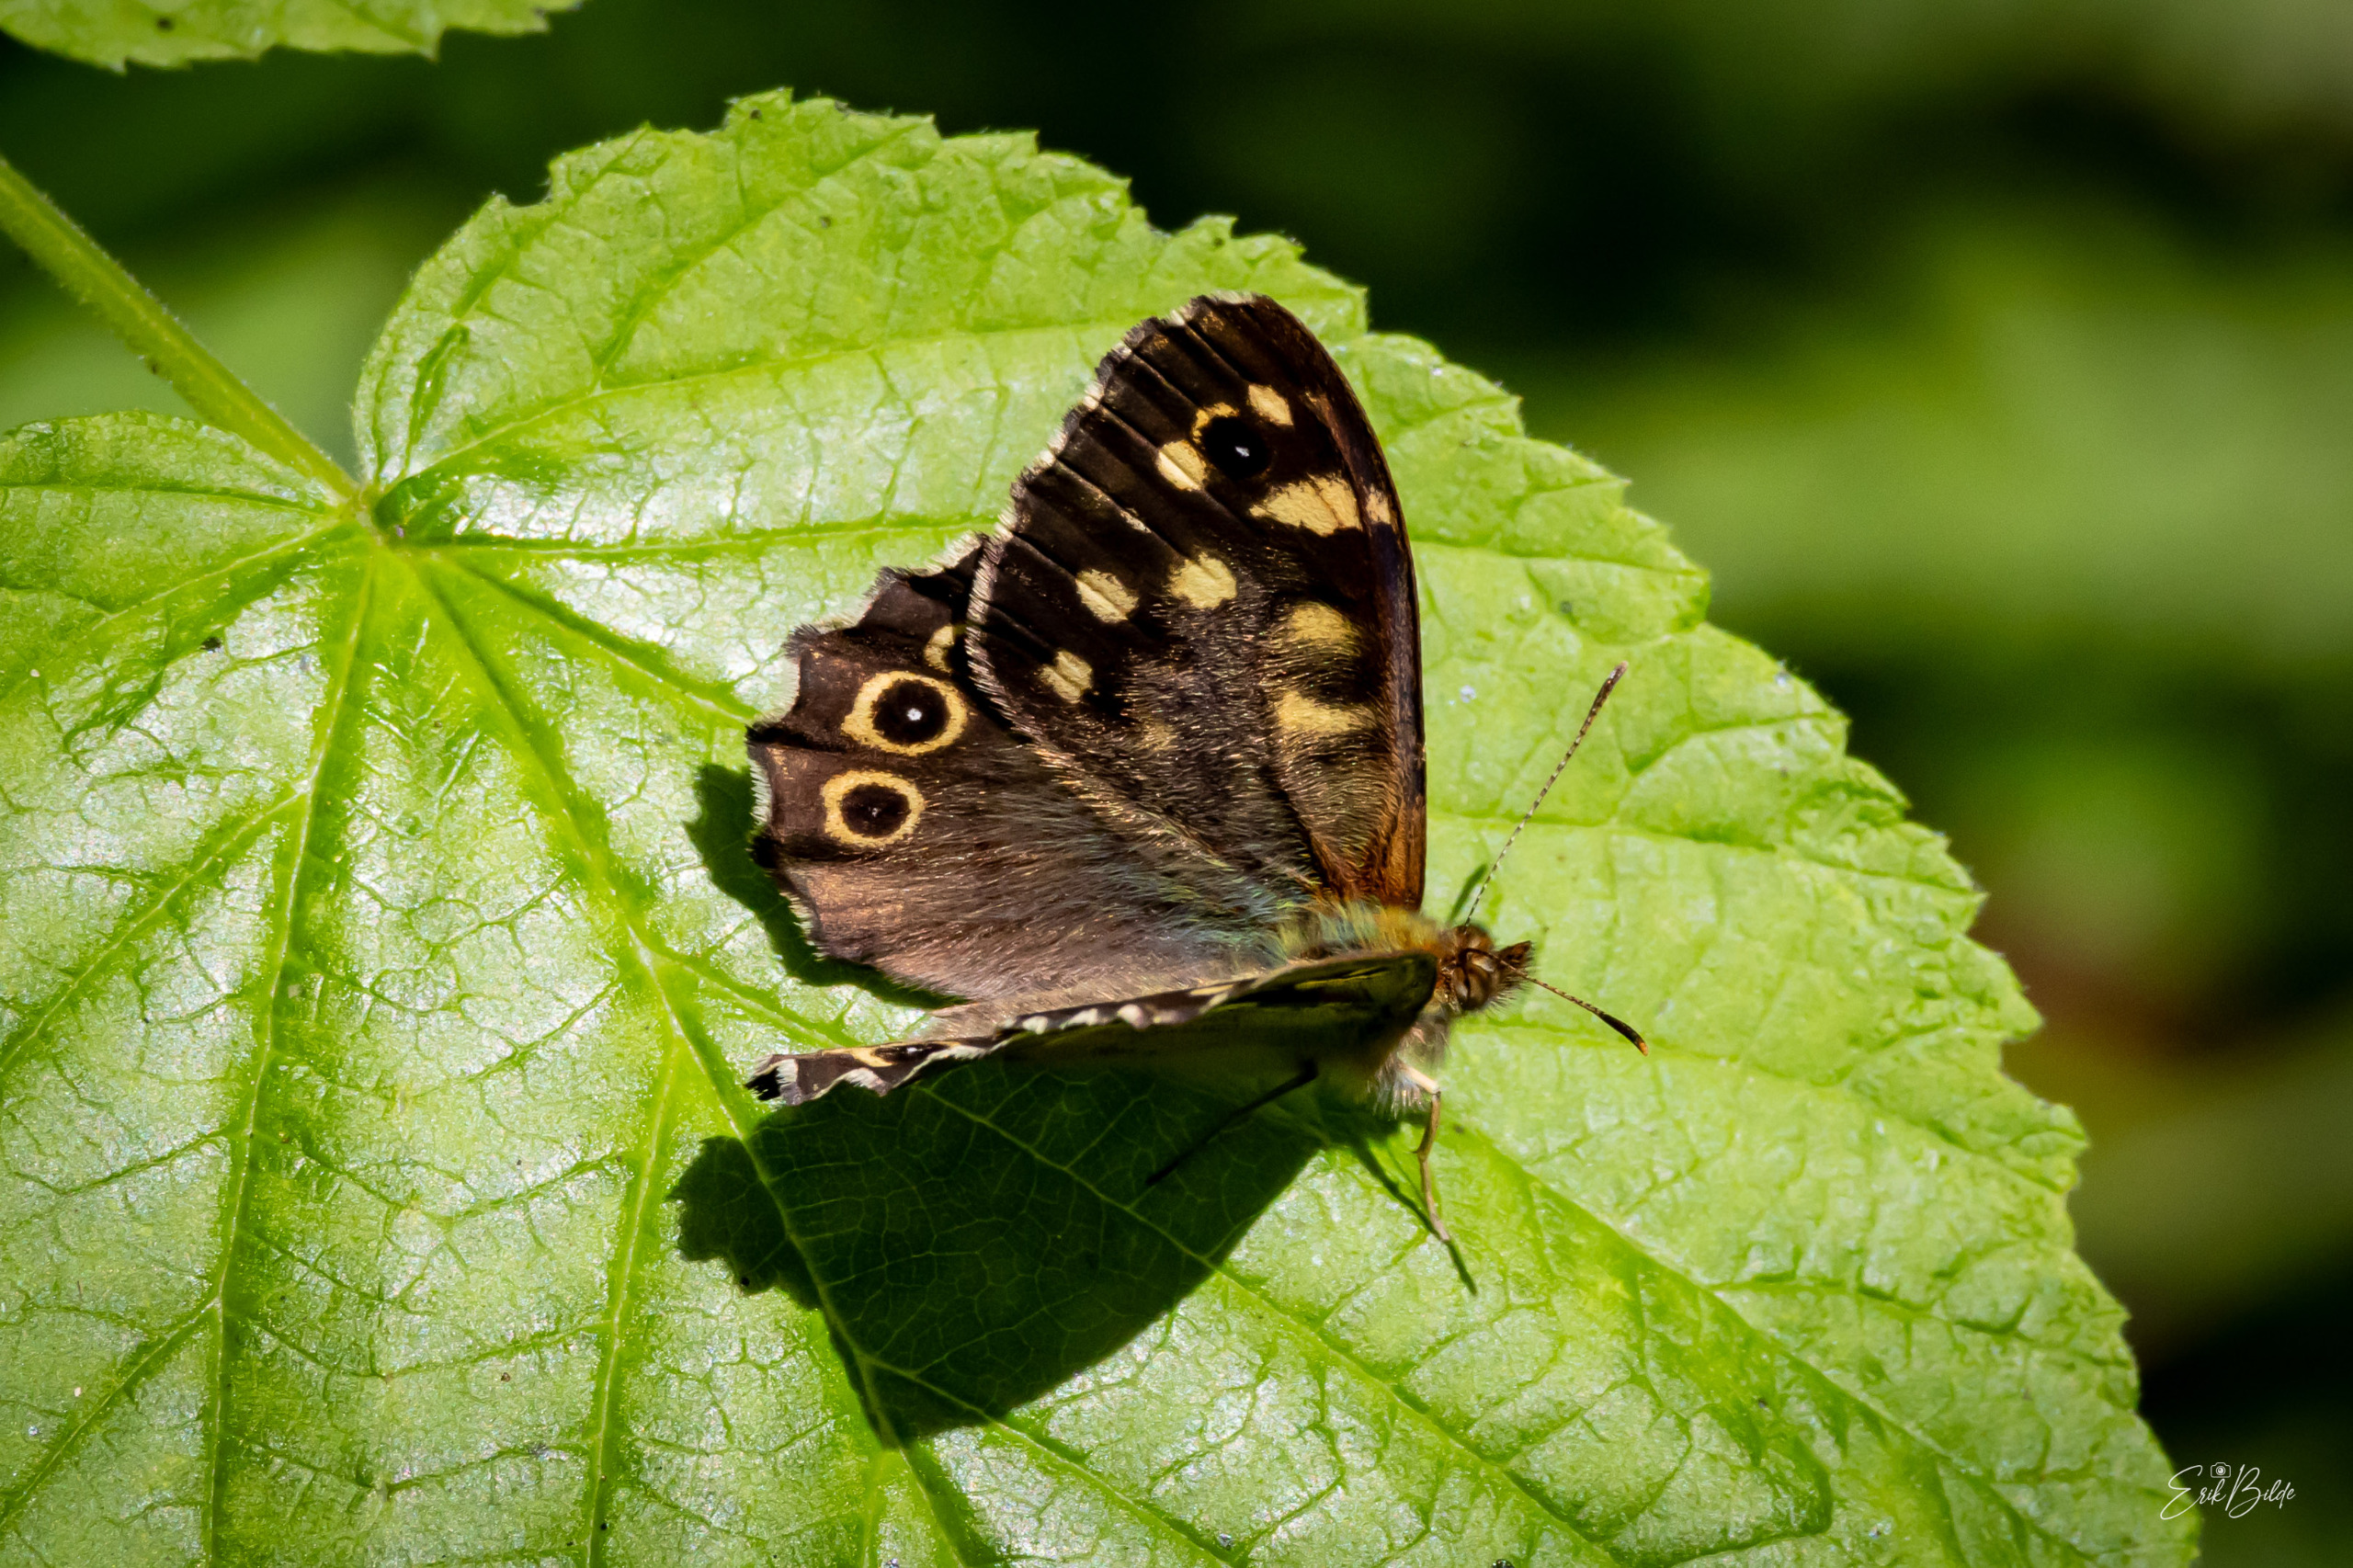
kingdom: Animalia
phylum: Arthropoda
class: Insecta
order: Lepidoptera
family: Nymphalidae
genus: Pararge
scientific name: Pararge aegeria
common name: Skovrandøje
